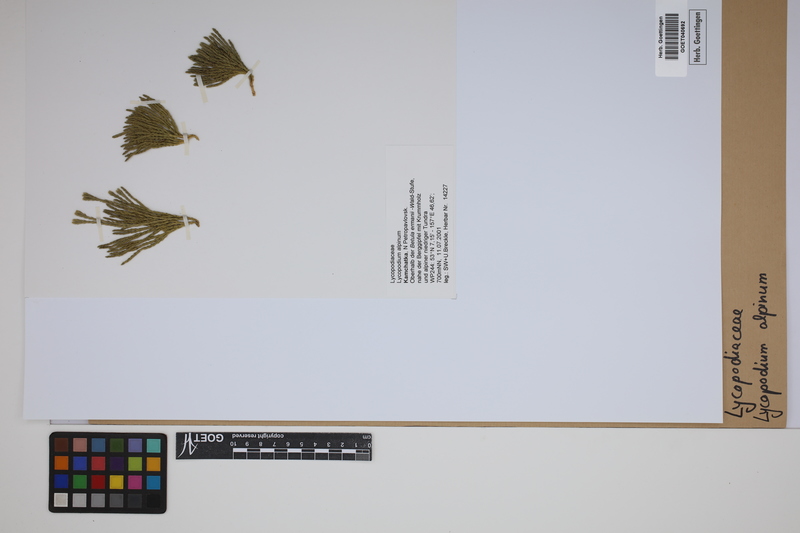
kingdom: Plantae
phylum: Tracheophyta
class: Lycopodiopsida
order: Lycopodiales
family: Lycopodiaceae
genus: Diphasiastrum
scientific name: Diphasiastrum alpinum
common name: Alpine clubmoss
